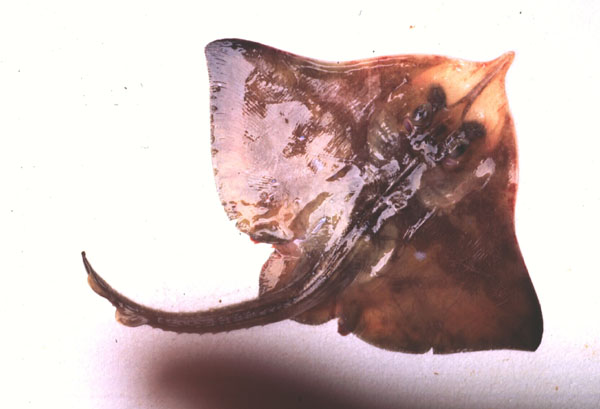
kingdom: Animalia
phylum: Chordata
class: Elasmobranchii
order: Rajiformes
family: Rajidae
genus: Rostroraja
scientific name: Rostroraja alba
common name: White skate
